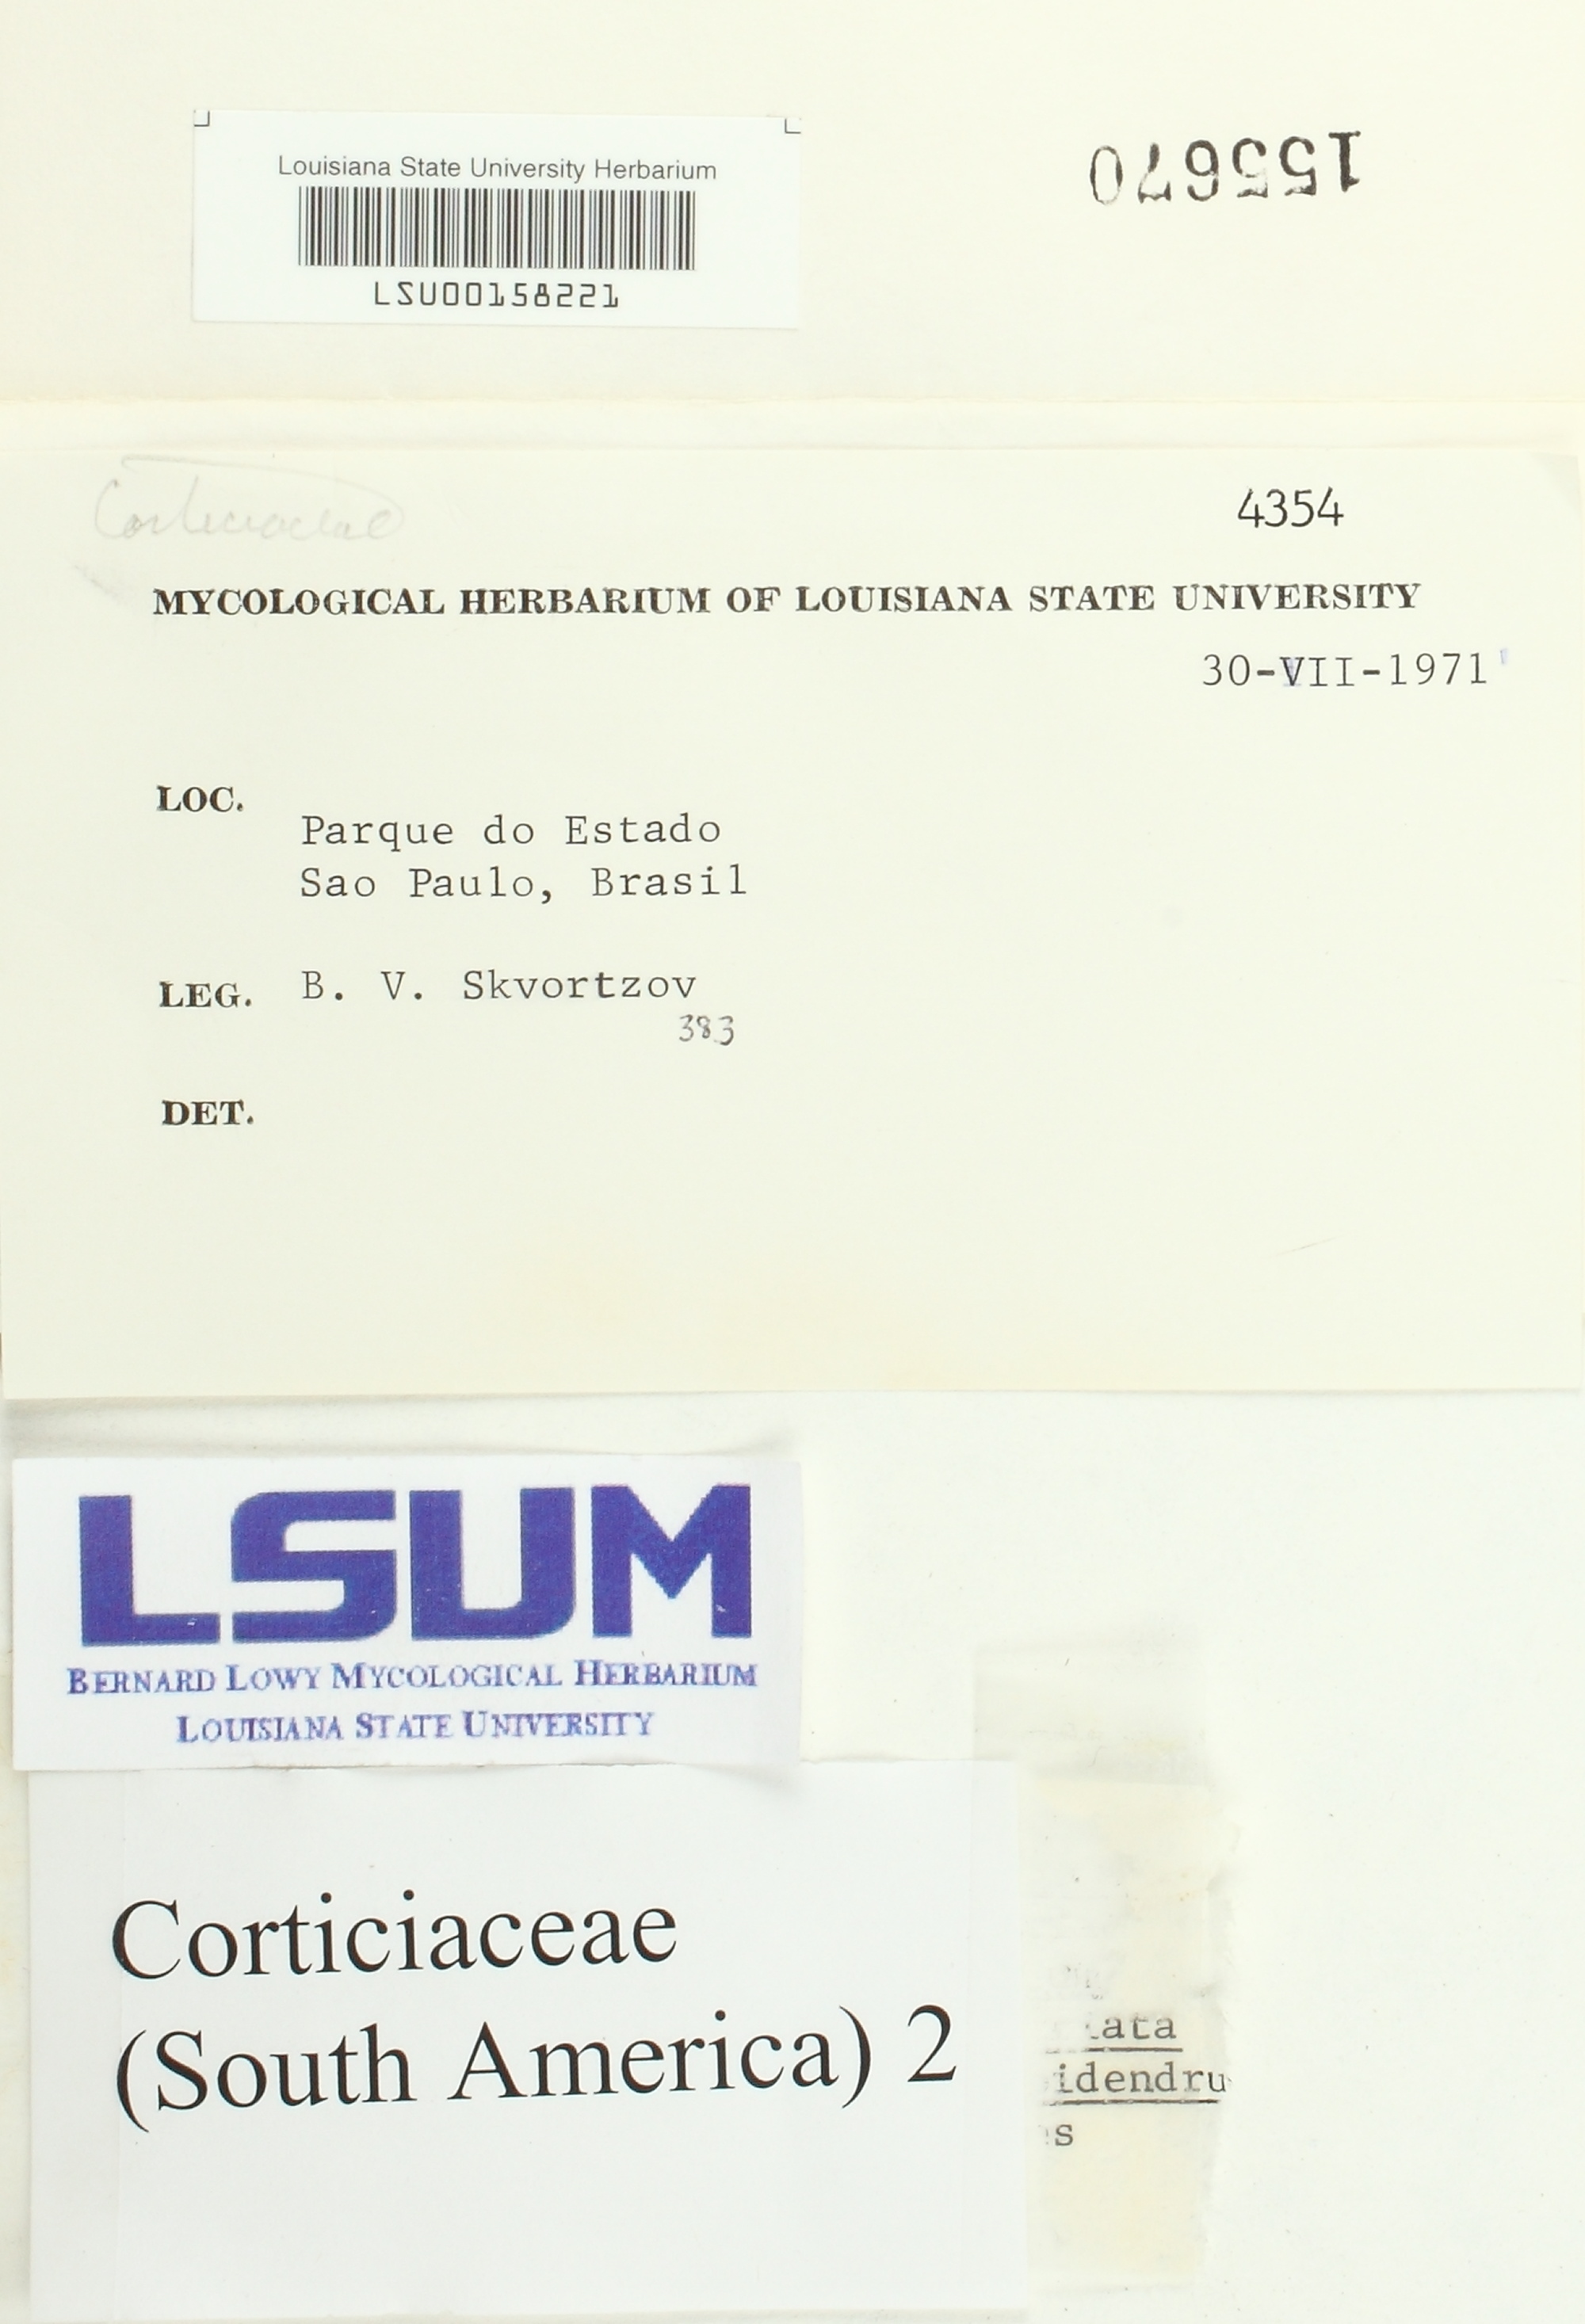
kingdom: Fungi
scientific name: Fungi
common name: Fungi
